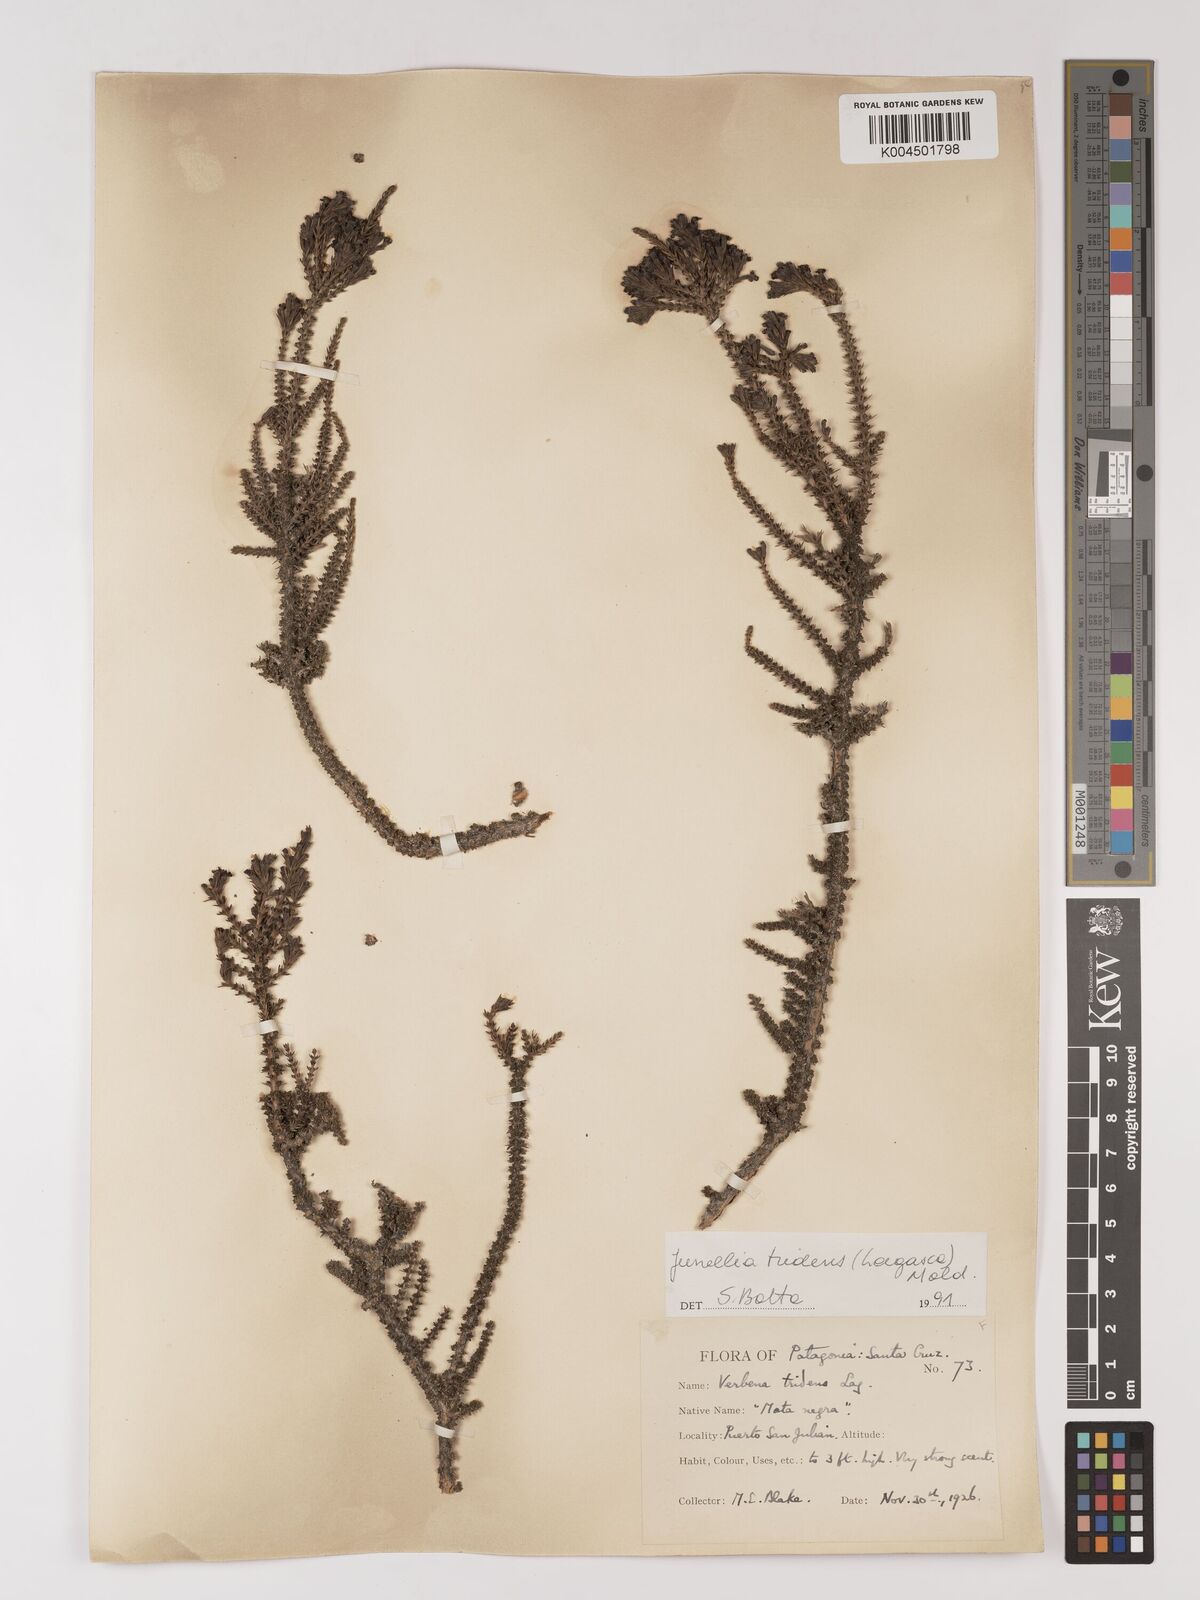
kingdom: Plantae
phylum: Tracheophyta
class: Magnoliopsida
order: Lamiales
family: Verbenaceae
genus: Mulguraea
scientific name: Mulguraea tridens
